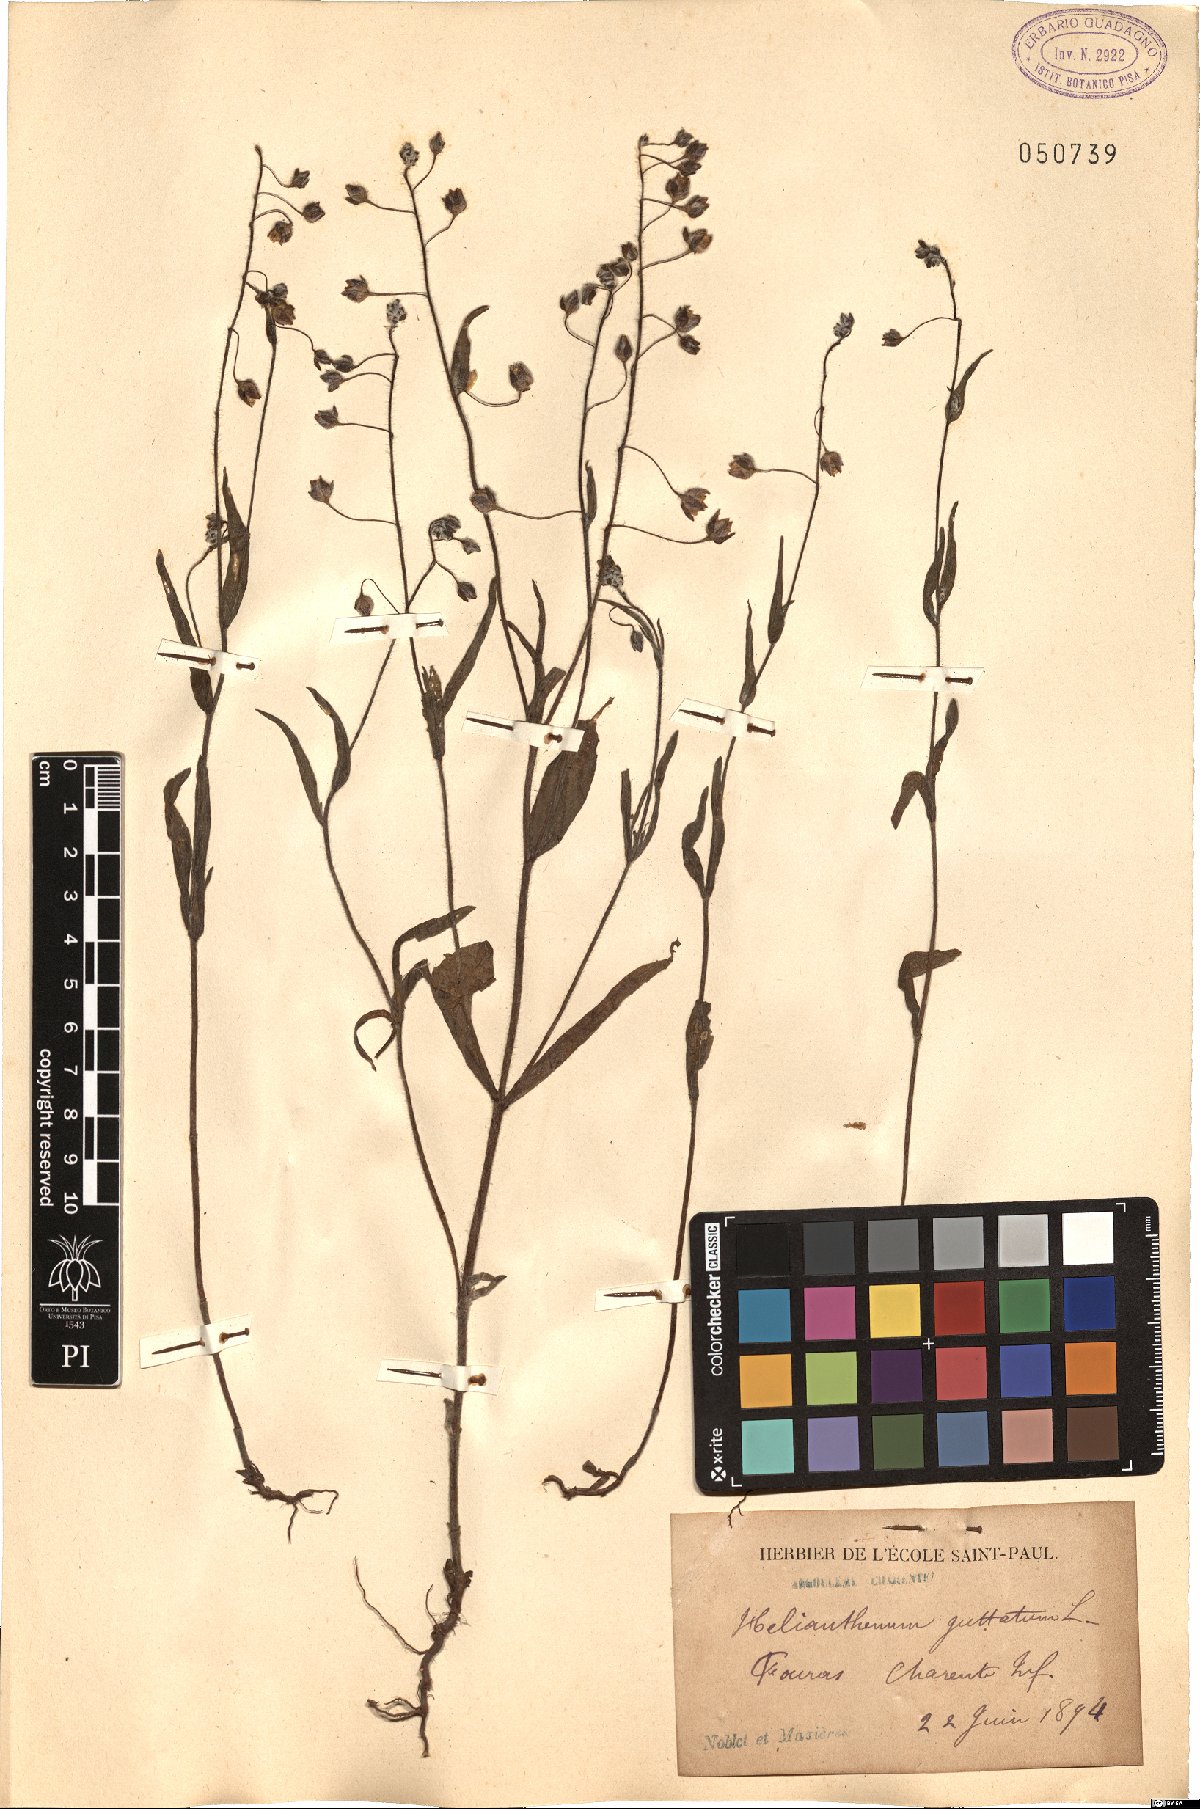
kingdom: Plantae
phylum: Tracheophyta
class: Magnoliopsida
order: Malvales
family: Cistaceae
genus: Tuberaria
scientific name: Tuberaria guttata
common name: Spotted rock-rose
